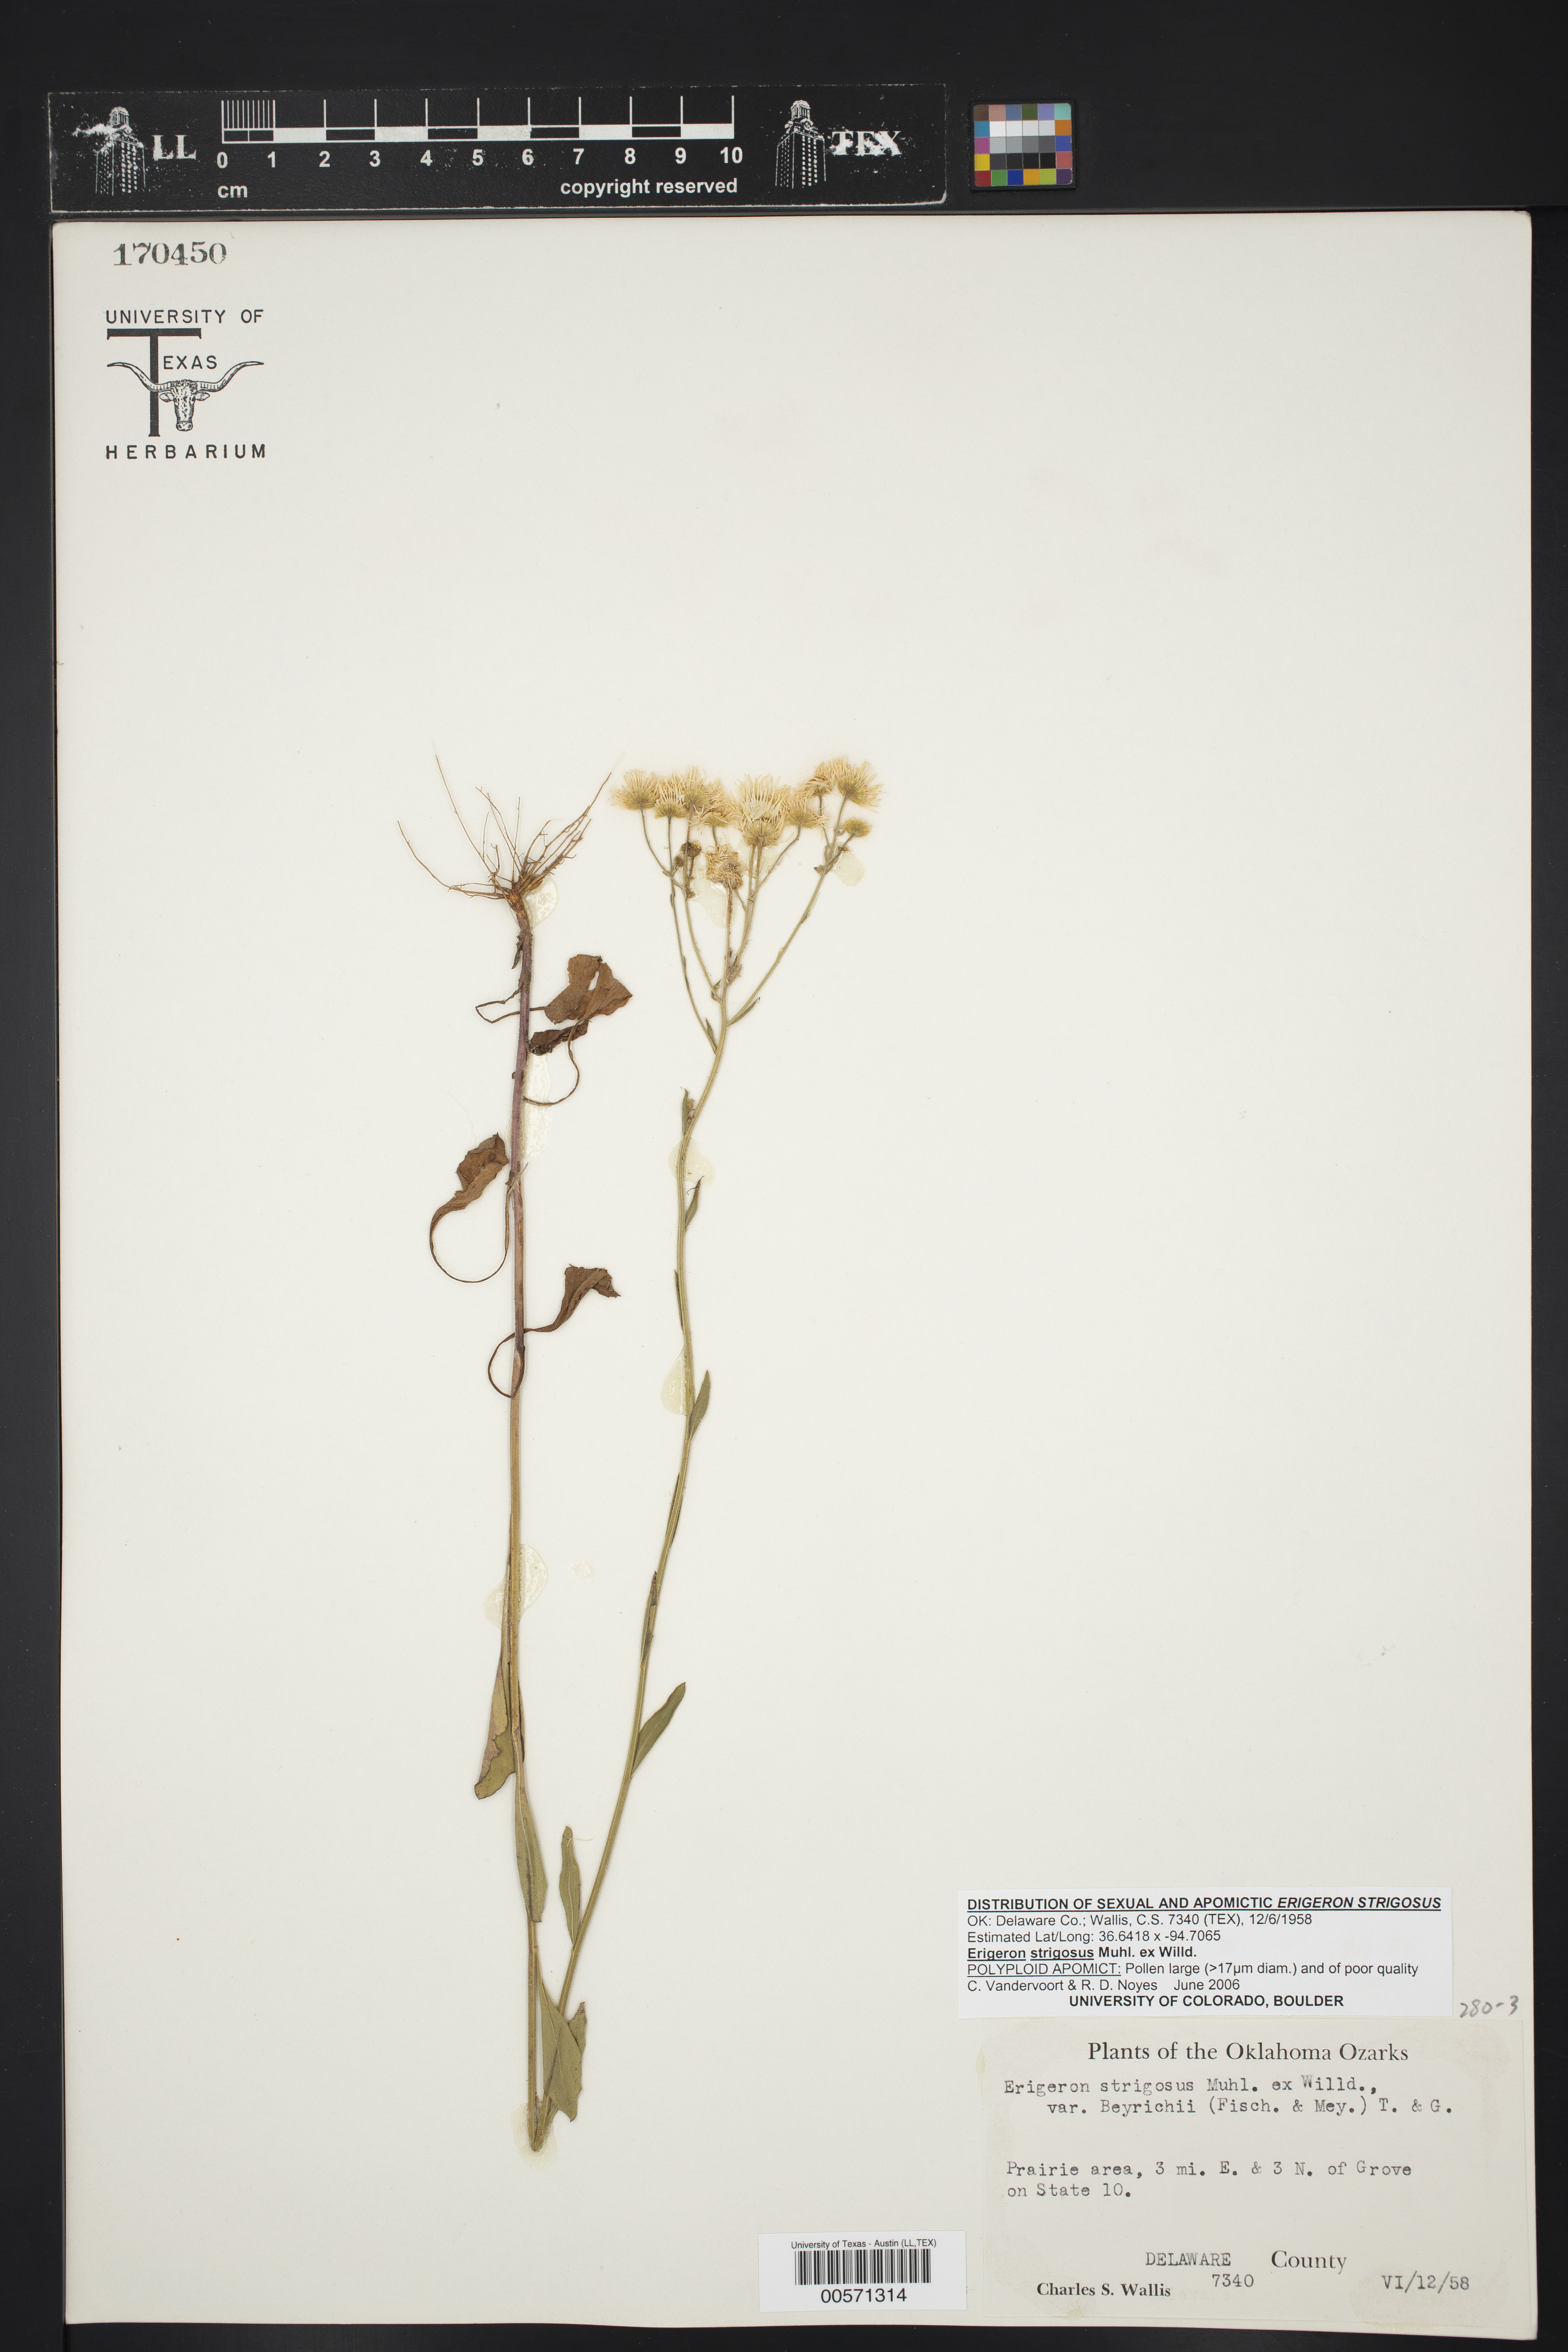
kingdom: Plantae
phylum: Tracheophyta
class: Magnoliopsida
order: Asterales
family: Asteraceae
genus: Erigeron
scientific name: Erigeron strigosus
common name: Common eastern fleabane
